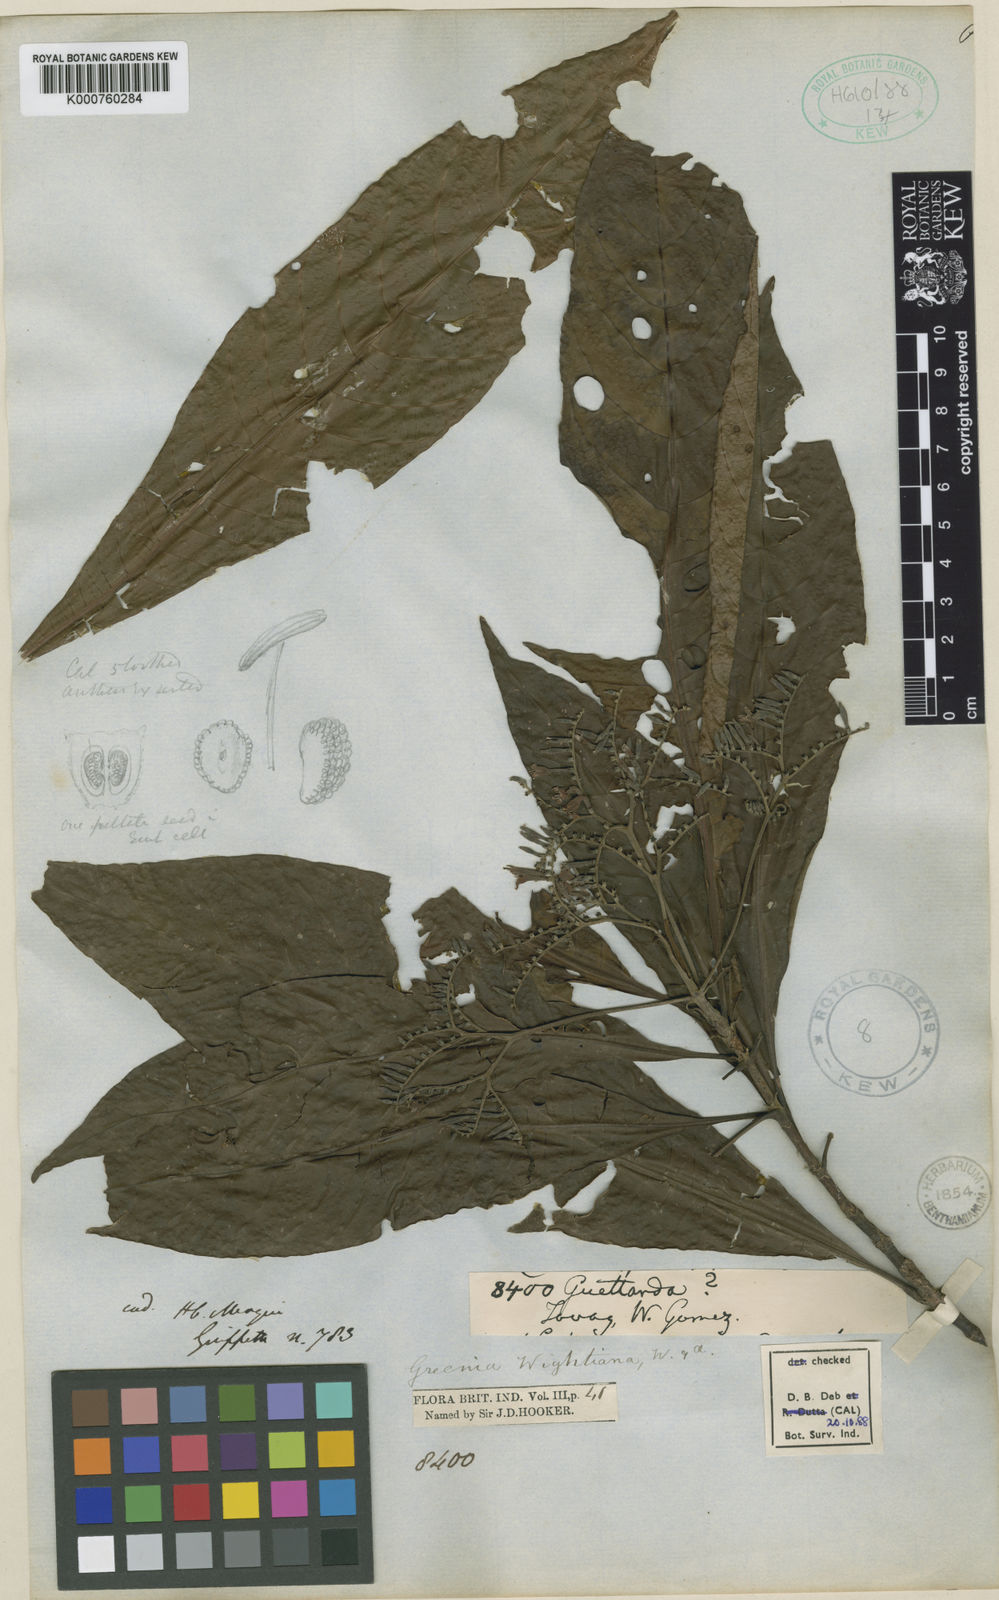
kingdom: Plantae
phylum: Tracheophyta
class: Magnoliopsida
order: Gentianales
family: Rubiaceae
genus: Greenea
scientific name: Greenea secunda
